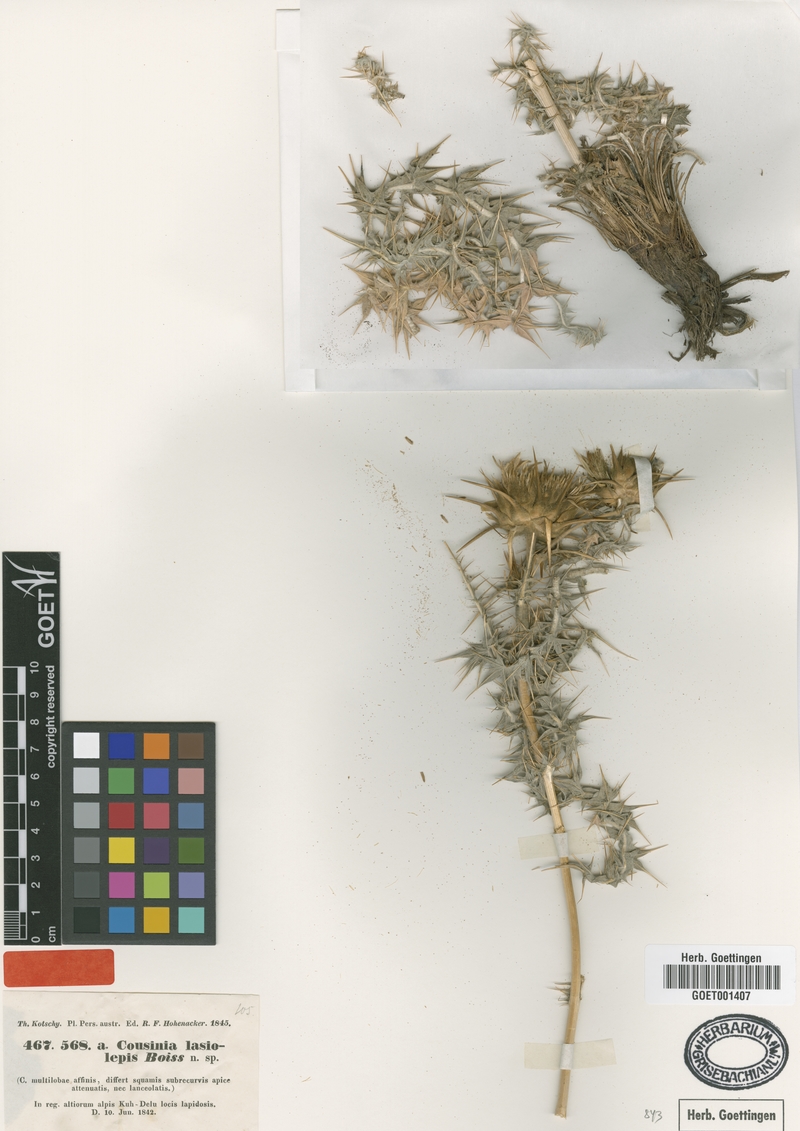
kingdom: Plantae
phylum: Tracheophyta
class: Magnoliopsida
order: Asterales
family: Asteraceae
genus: Cousinia
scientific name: Cousinia lasiolepis
